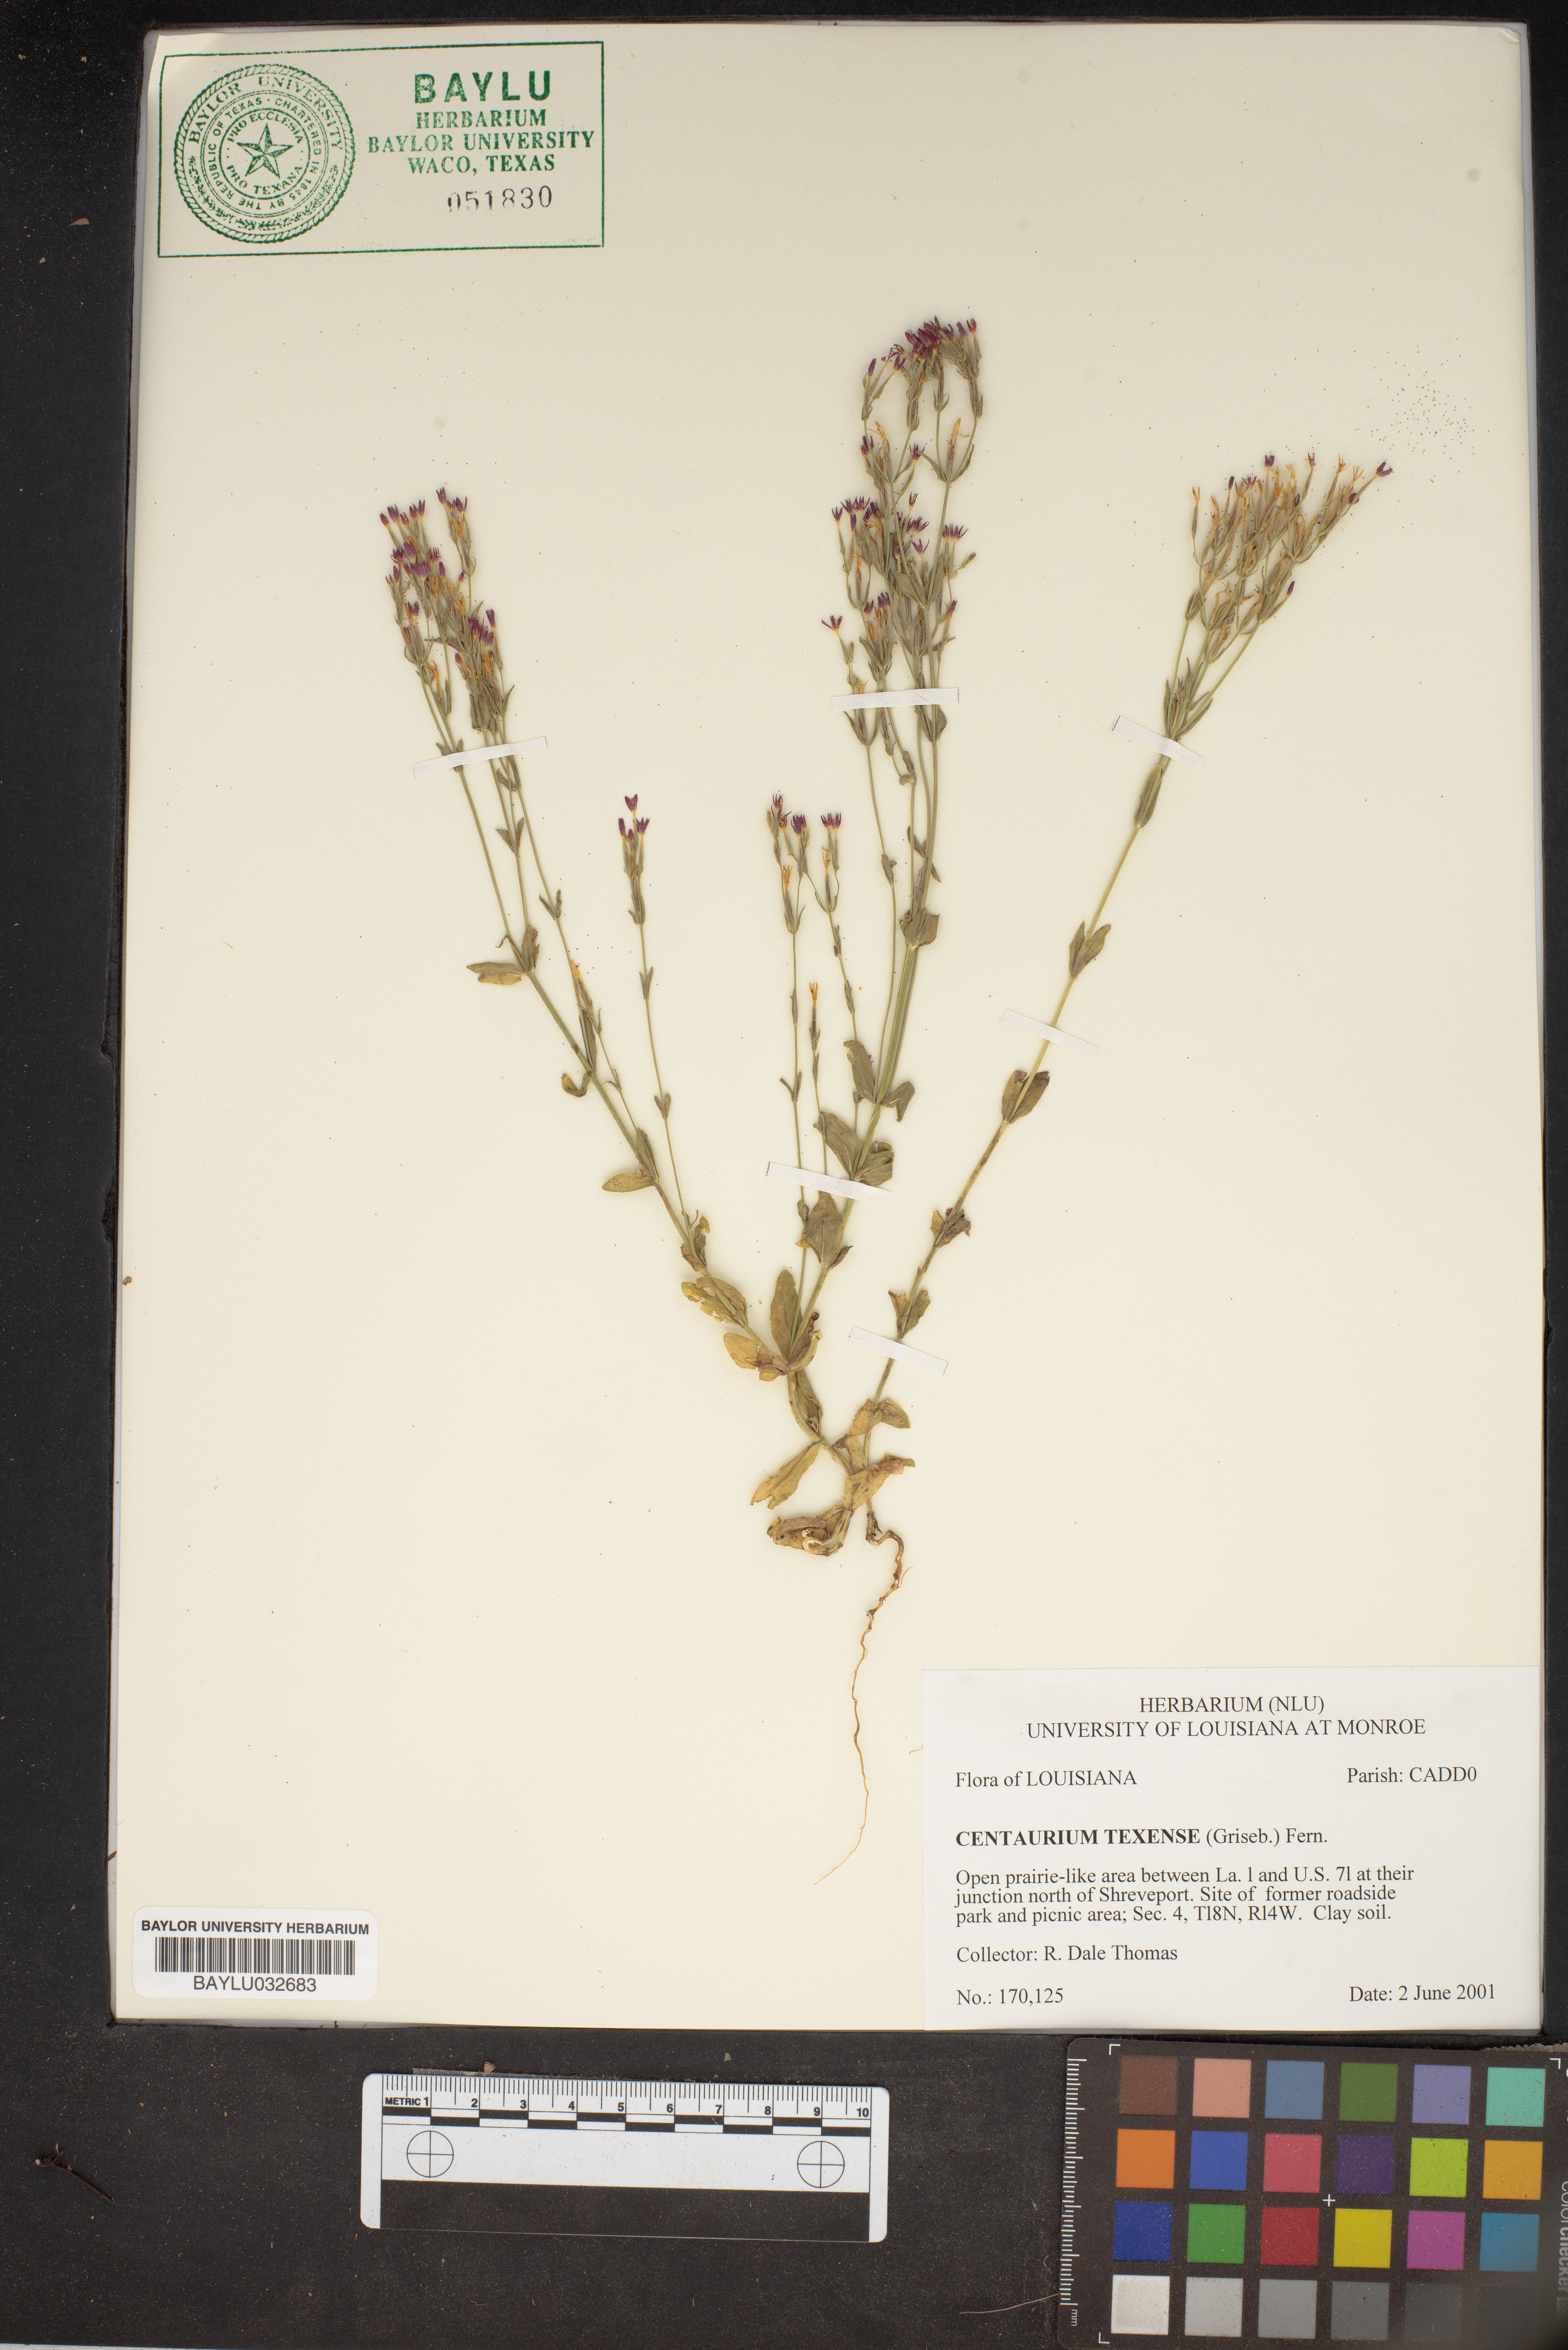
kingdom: Plantae
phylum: Tracheophyta
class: Magnoliopsida
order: Gentianales
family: Gentianaceae
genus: Zeltnera
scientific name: Zeltnera texensis
